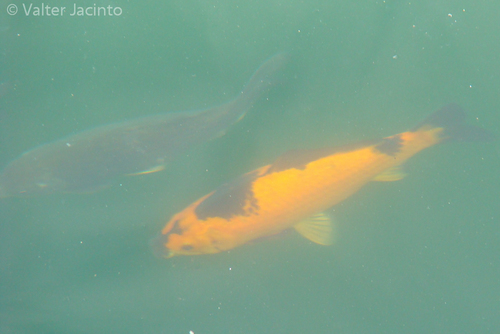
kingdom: Animalia
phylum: Chordata
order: Cypriniformes
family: Cyprinidae
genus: Cyprinus
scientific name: Cyprinus rubrofuscus
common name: Koi
